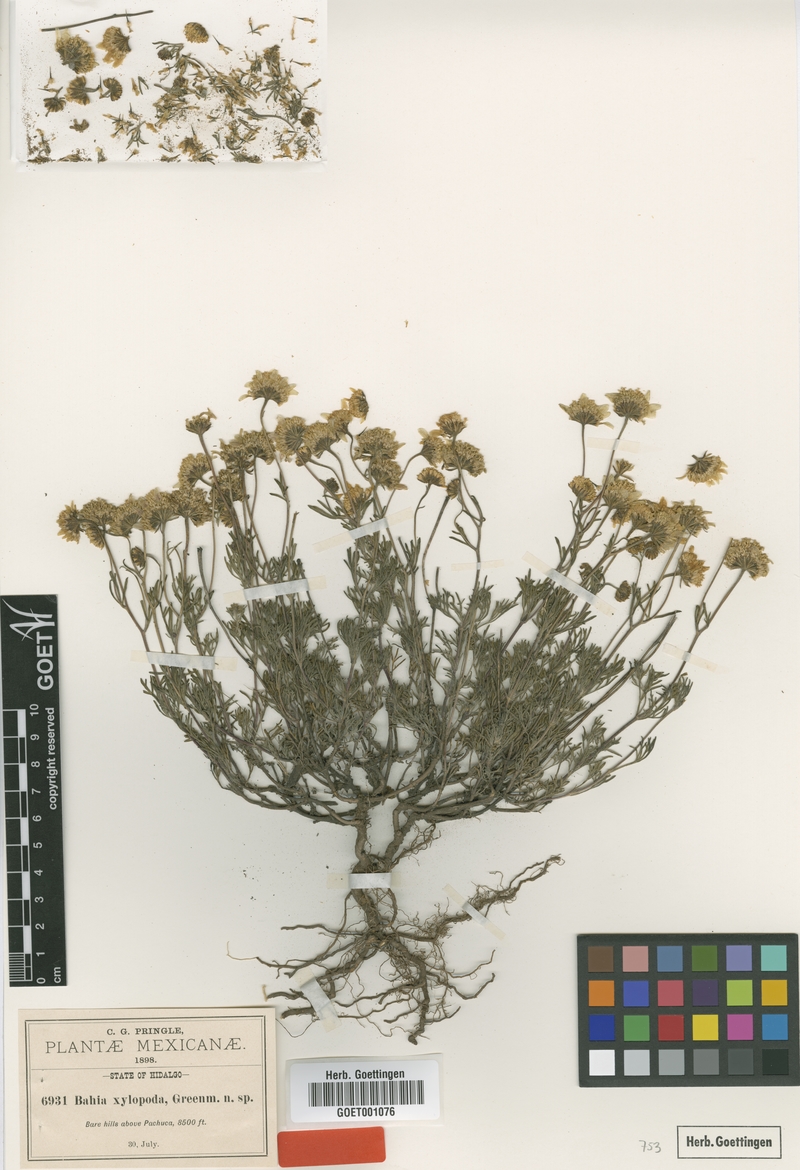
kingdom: Plantae
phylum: Tracheophyta
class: Magnoliopsida
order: Asterales
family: Asteraceae
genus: Picradeniopsis
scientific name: Picradeniopsis xylopoda
